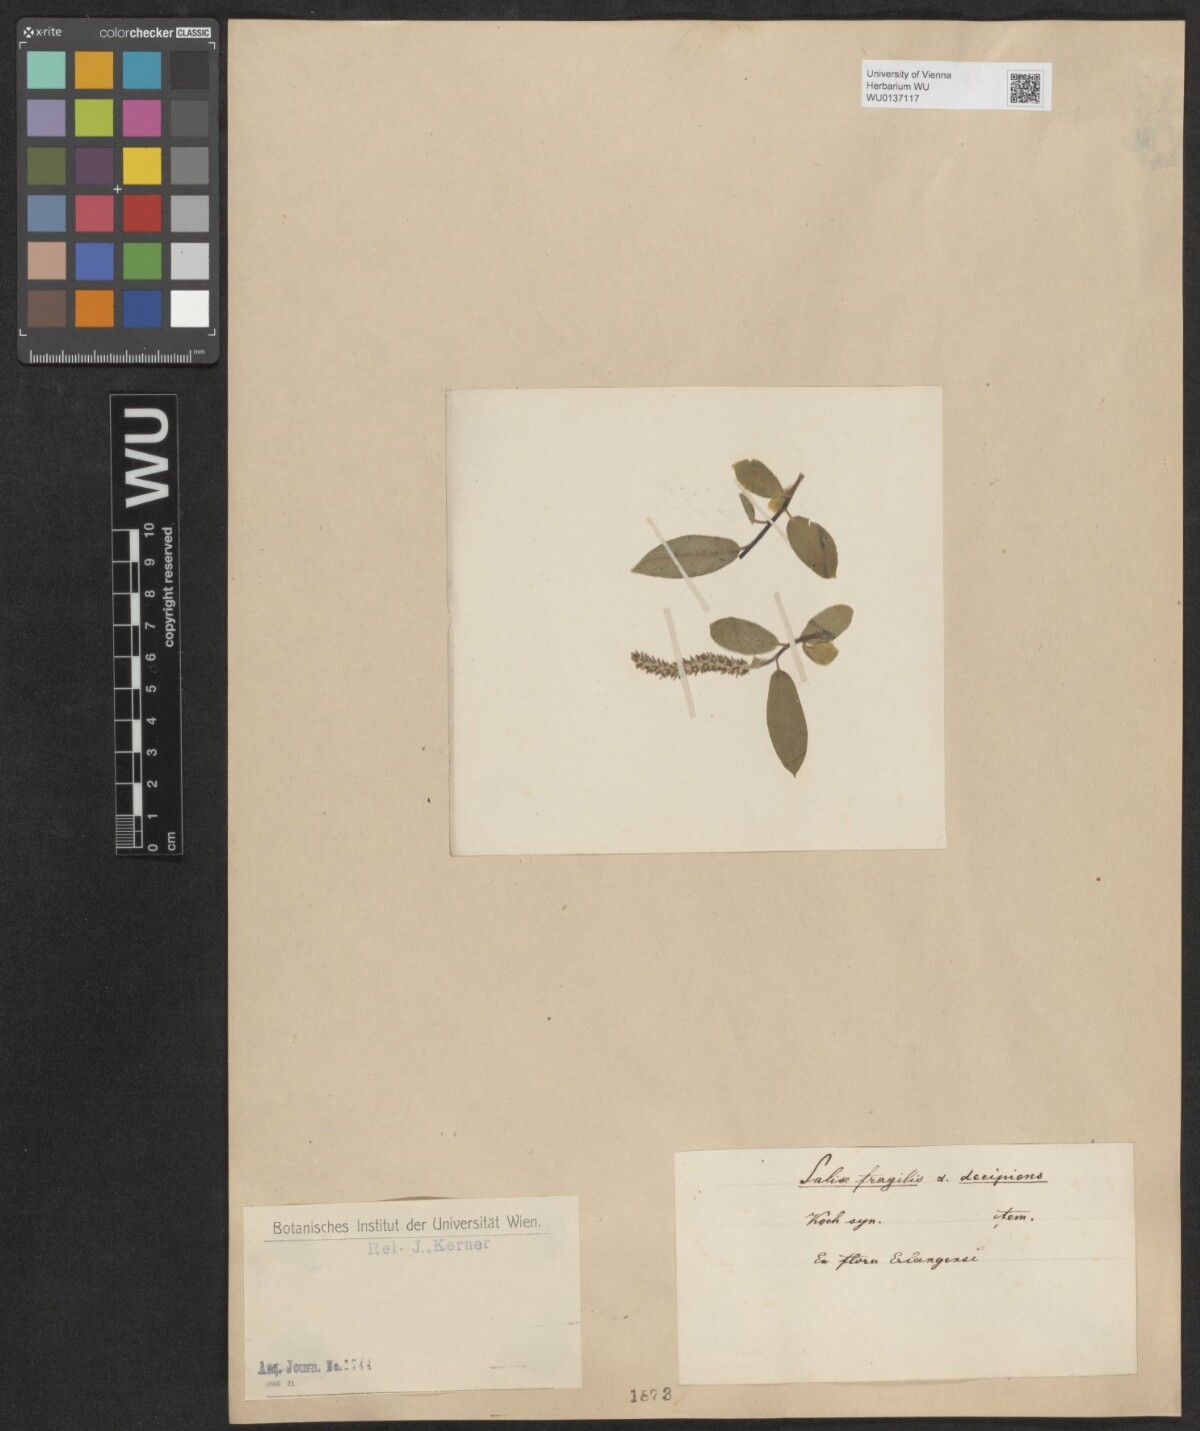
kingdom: Plantae
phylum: Tracheophyta
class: Magnoliopsida
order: Malpighiales
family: Salicaceae
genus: Salix
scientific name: Salix fragilis
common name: Crack willow
